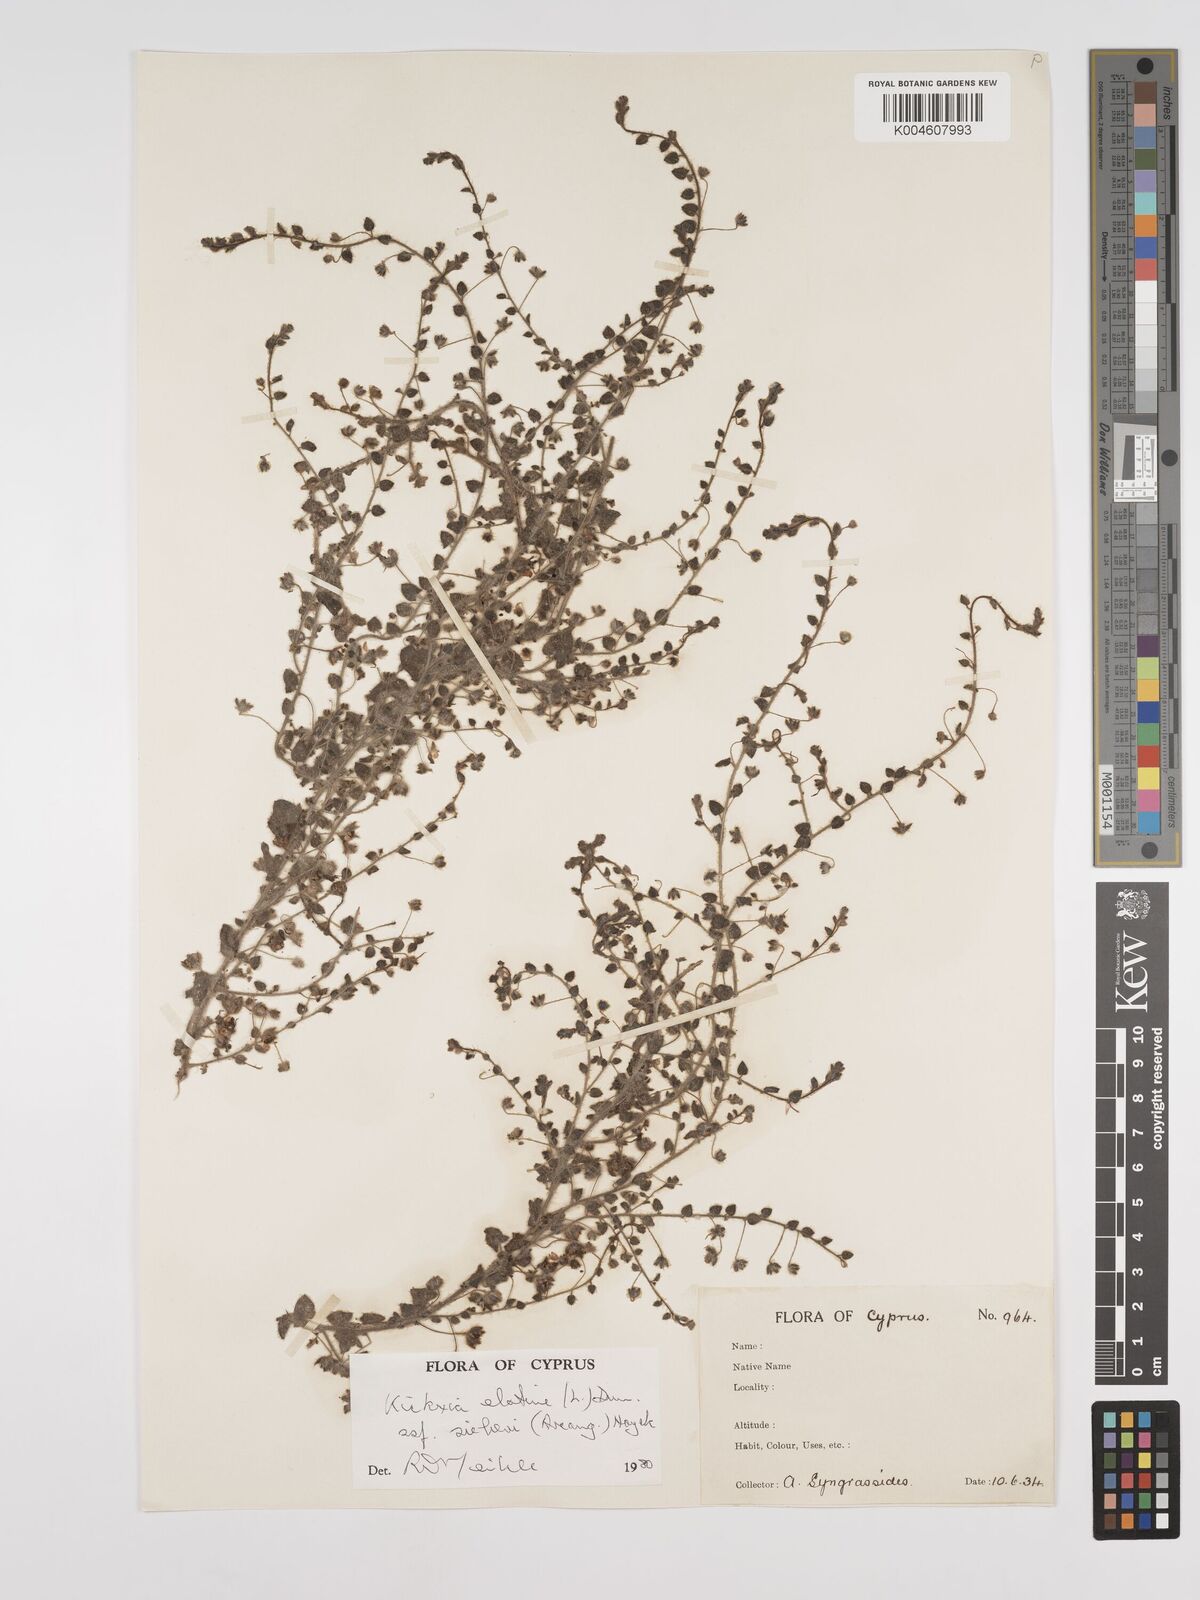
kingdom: Plantae
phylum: Tracheophyta
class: Magnoliopsida
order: Lamiales
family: Plantaginaceae
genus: Kickxia
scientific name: Kickxia elatine
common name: Sharp-leaved fluellen
